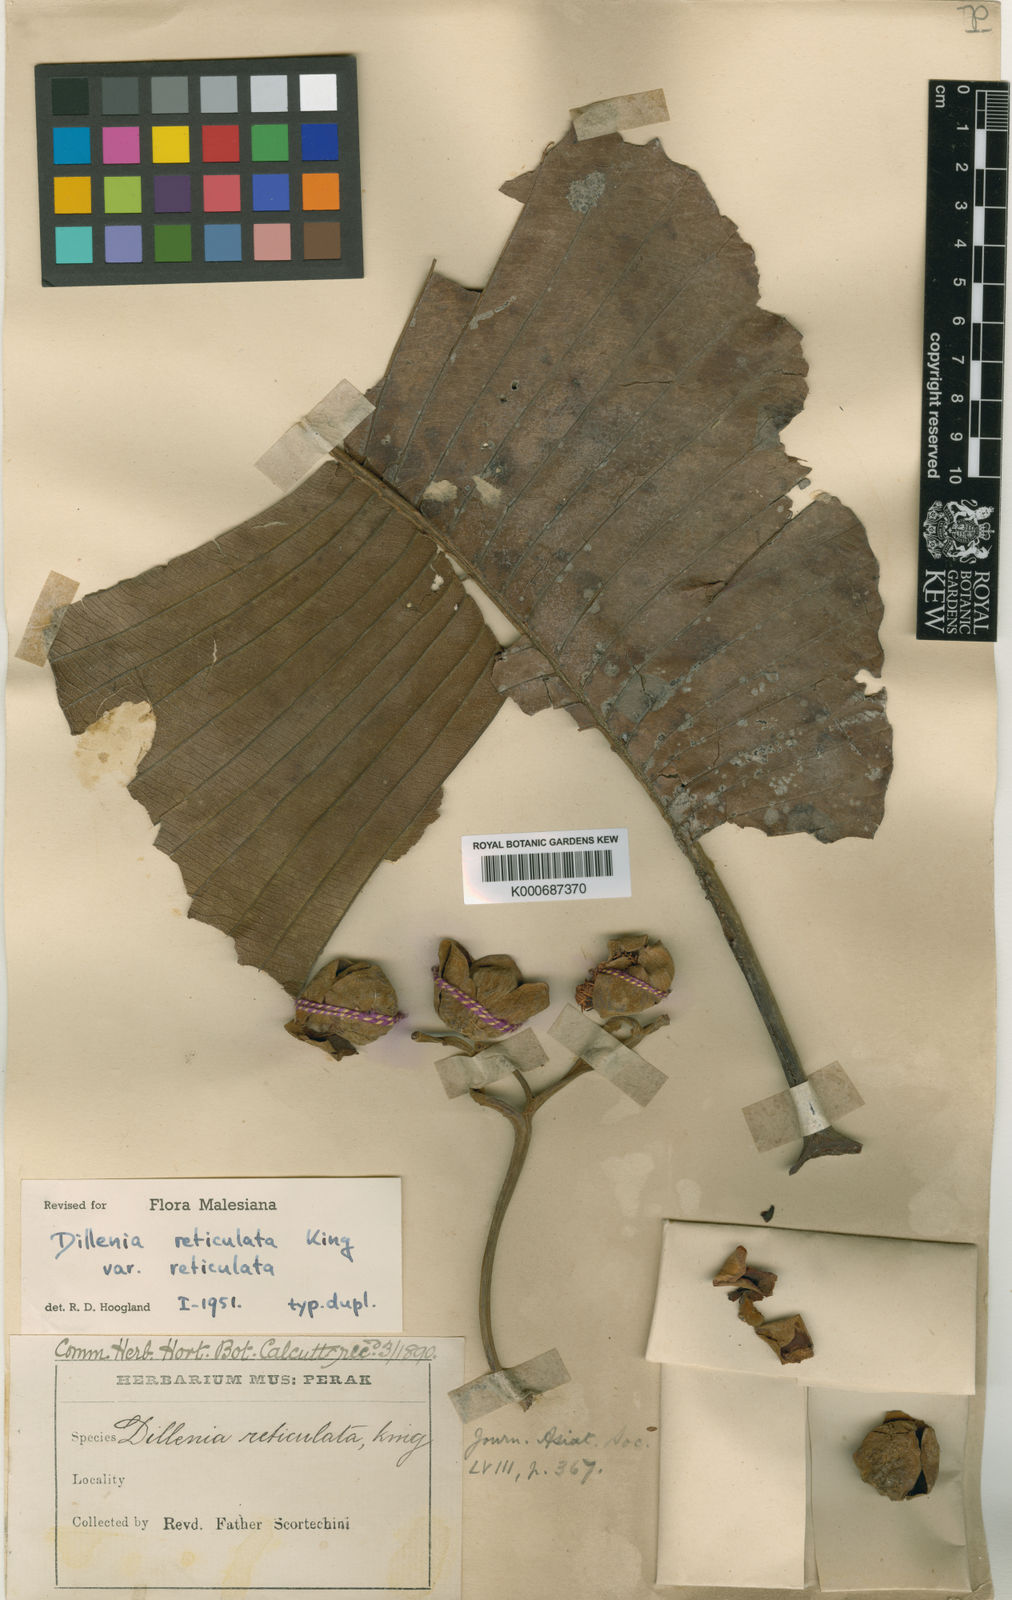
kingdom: Plantae
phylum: Tracheophyta
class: Magnoliopsida
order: Dilleniales
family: Dilleniaceae
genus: Dillenia
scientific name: Dillenia reticulata
